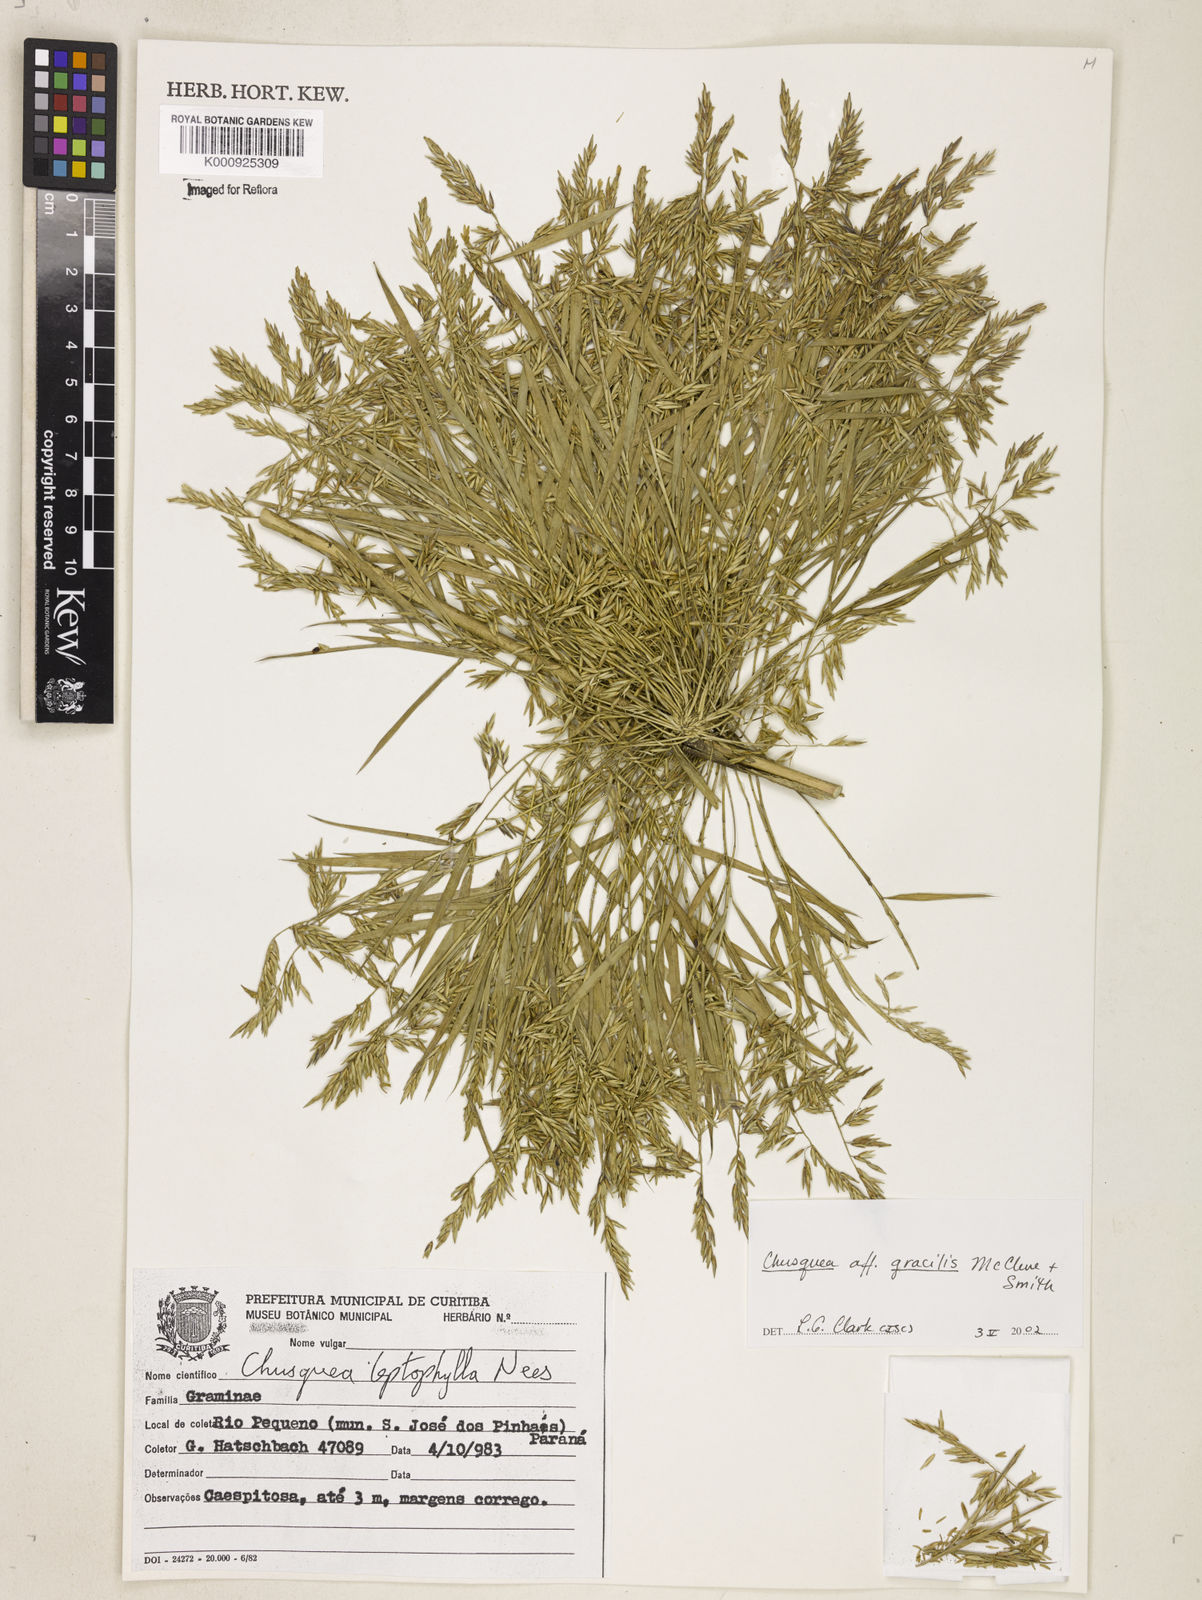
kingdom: Plantae
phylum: Tracheophyta
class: Liliopsida
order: Poales
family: Poaceae
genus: Chusquea
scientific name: Chusquea gracilis
